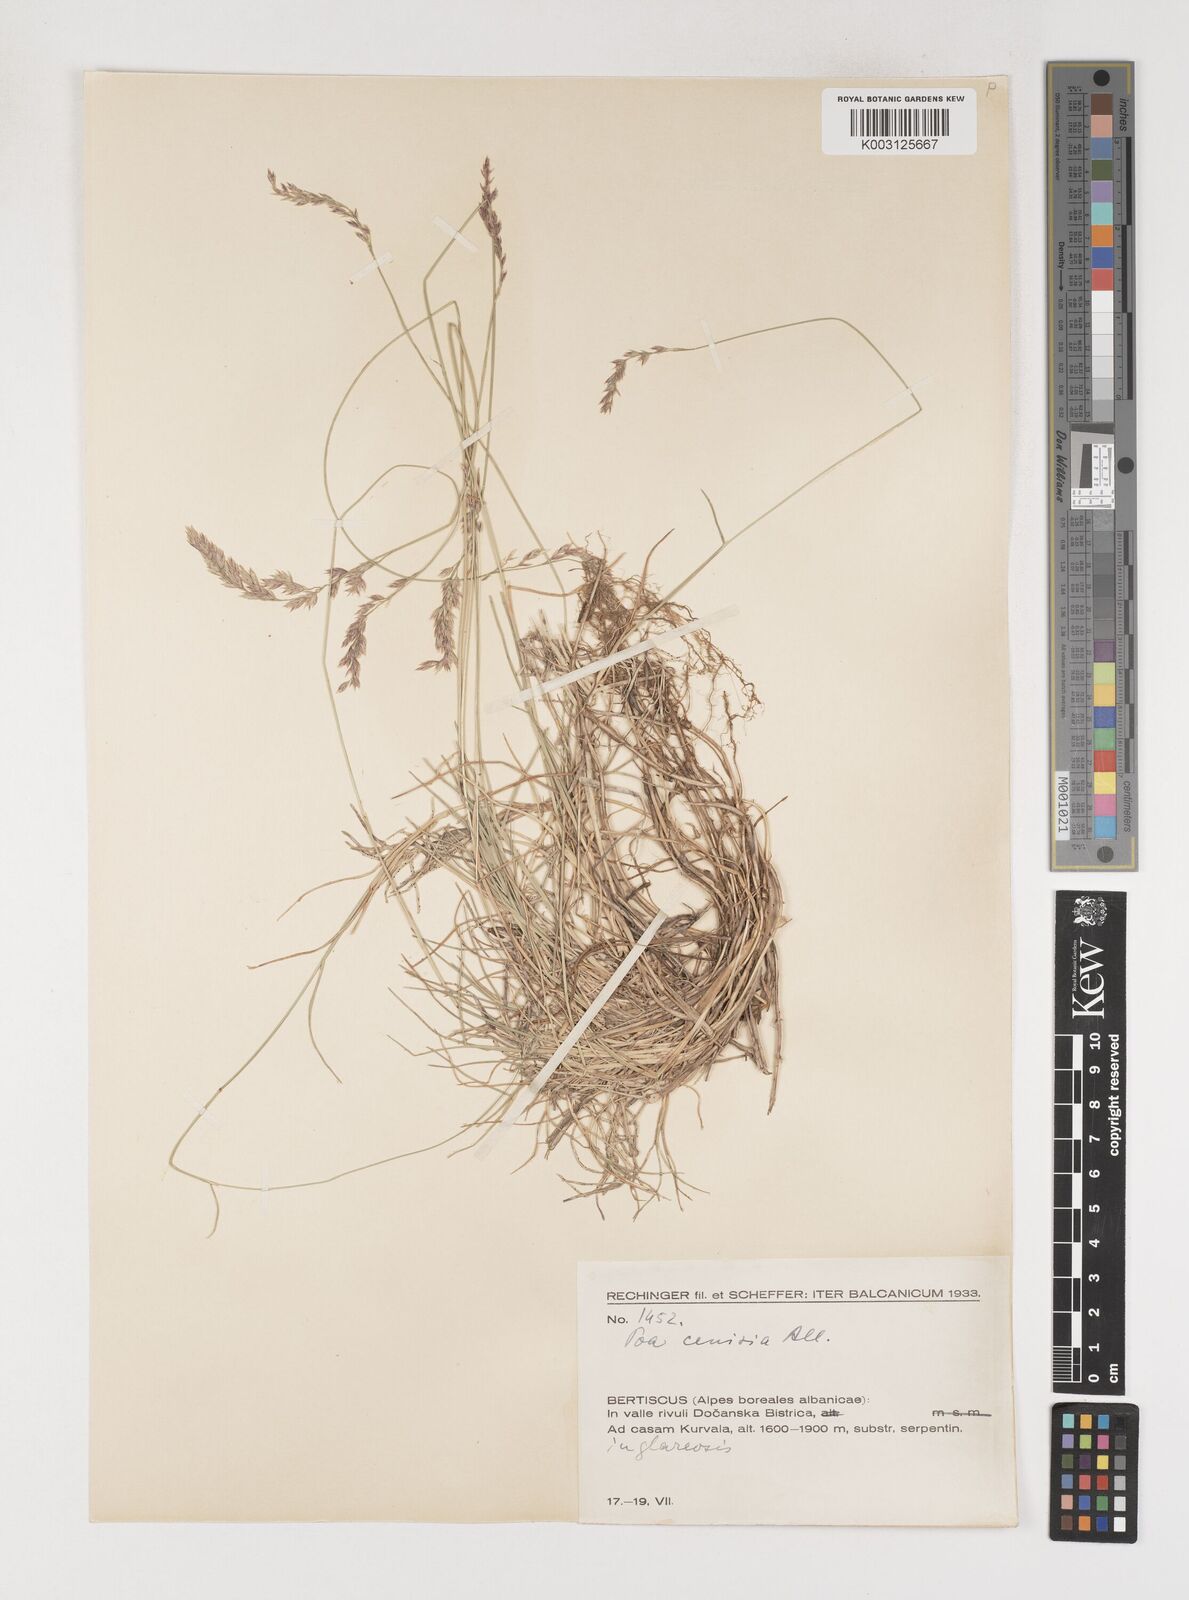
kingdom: Plantae
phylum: Tracheophyta
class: Liliopsida
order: Poales
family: Poaceae
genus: Poa
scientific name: Poa
